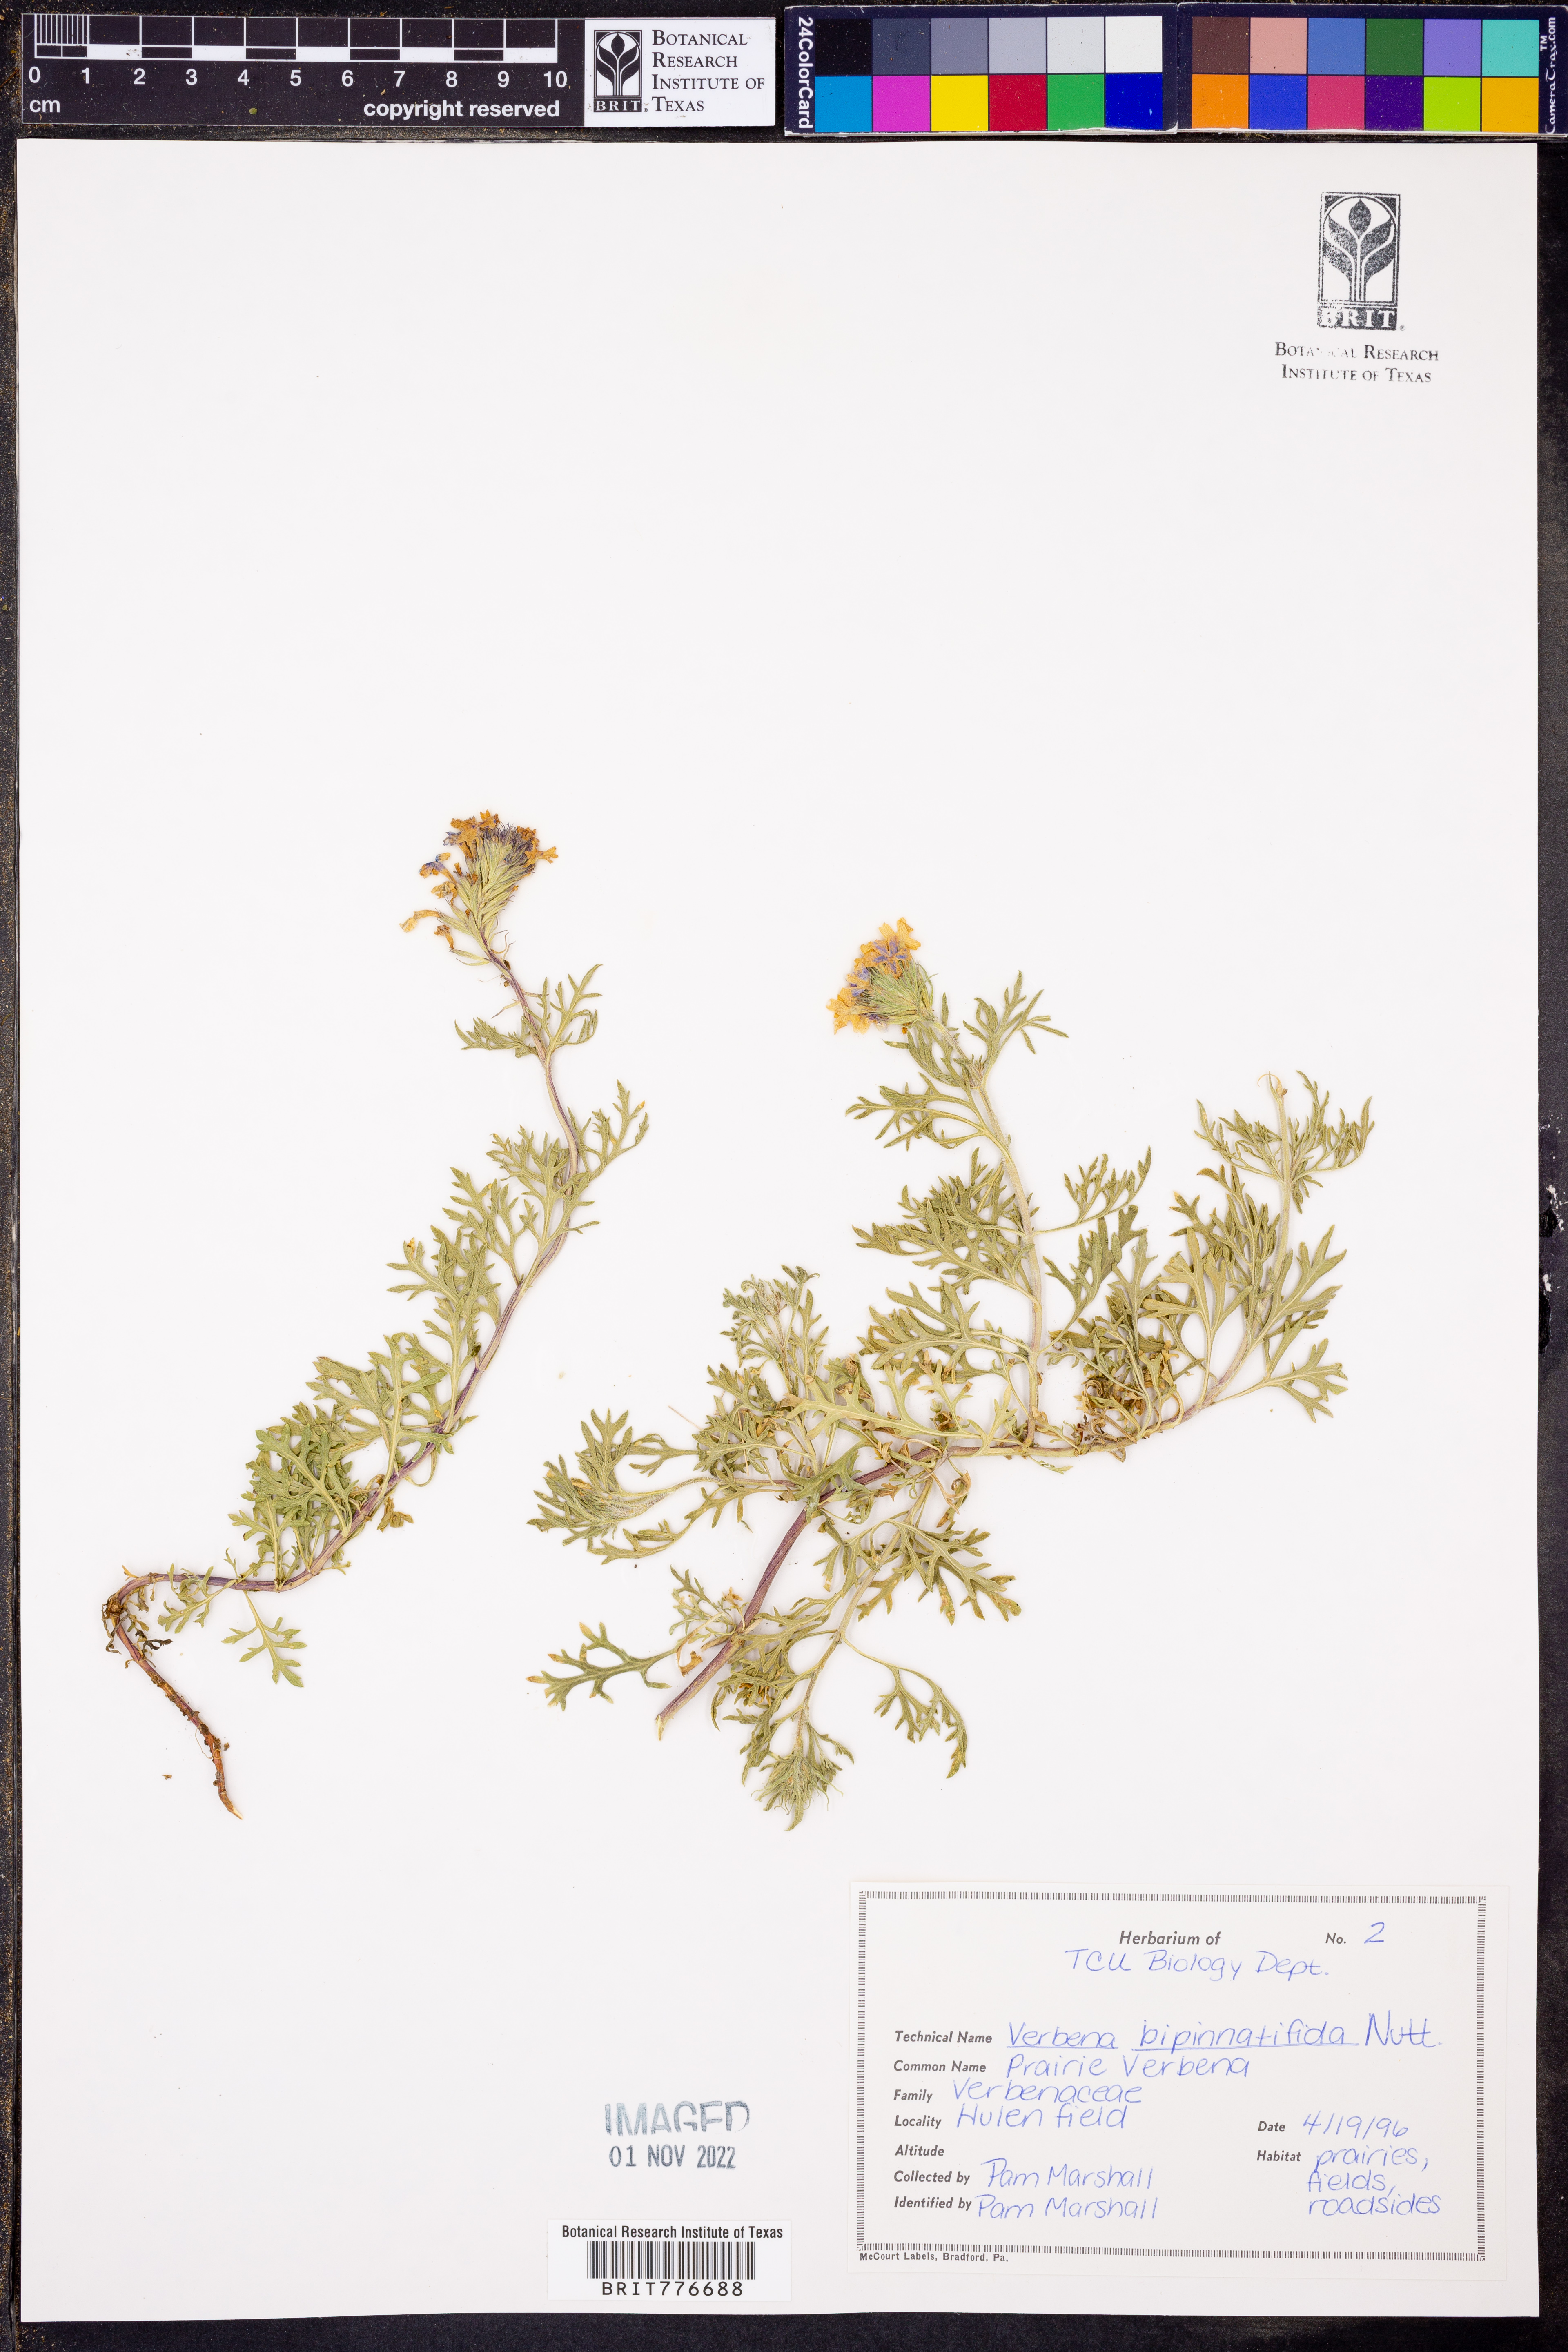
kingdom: Plantae
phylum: Tracheophyta
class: Magnoliopsida
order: Lamiales
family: Verbenaceae
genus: Verbena
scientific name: Verbena bipinnatifida
